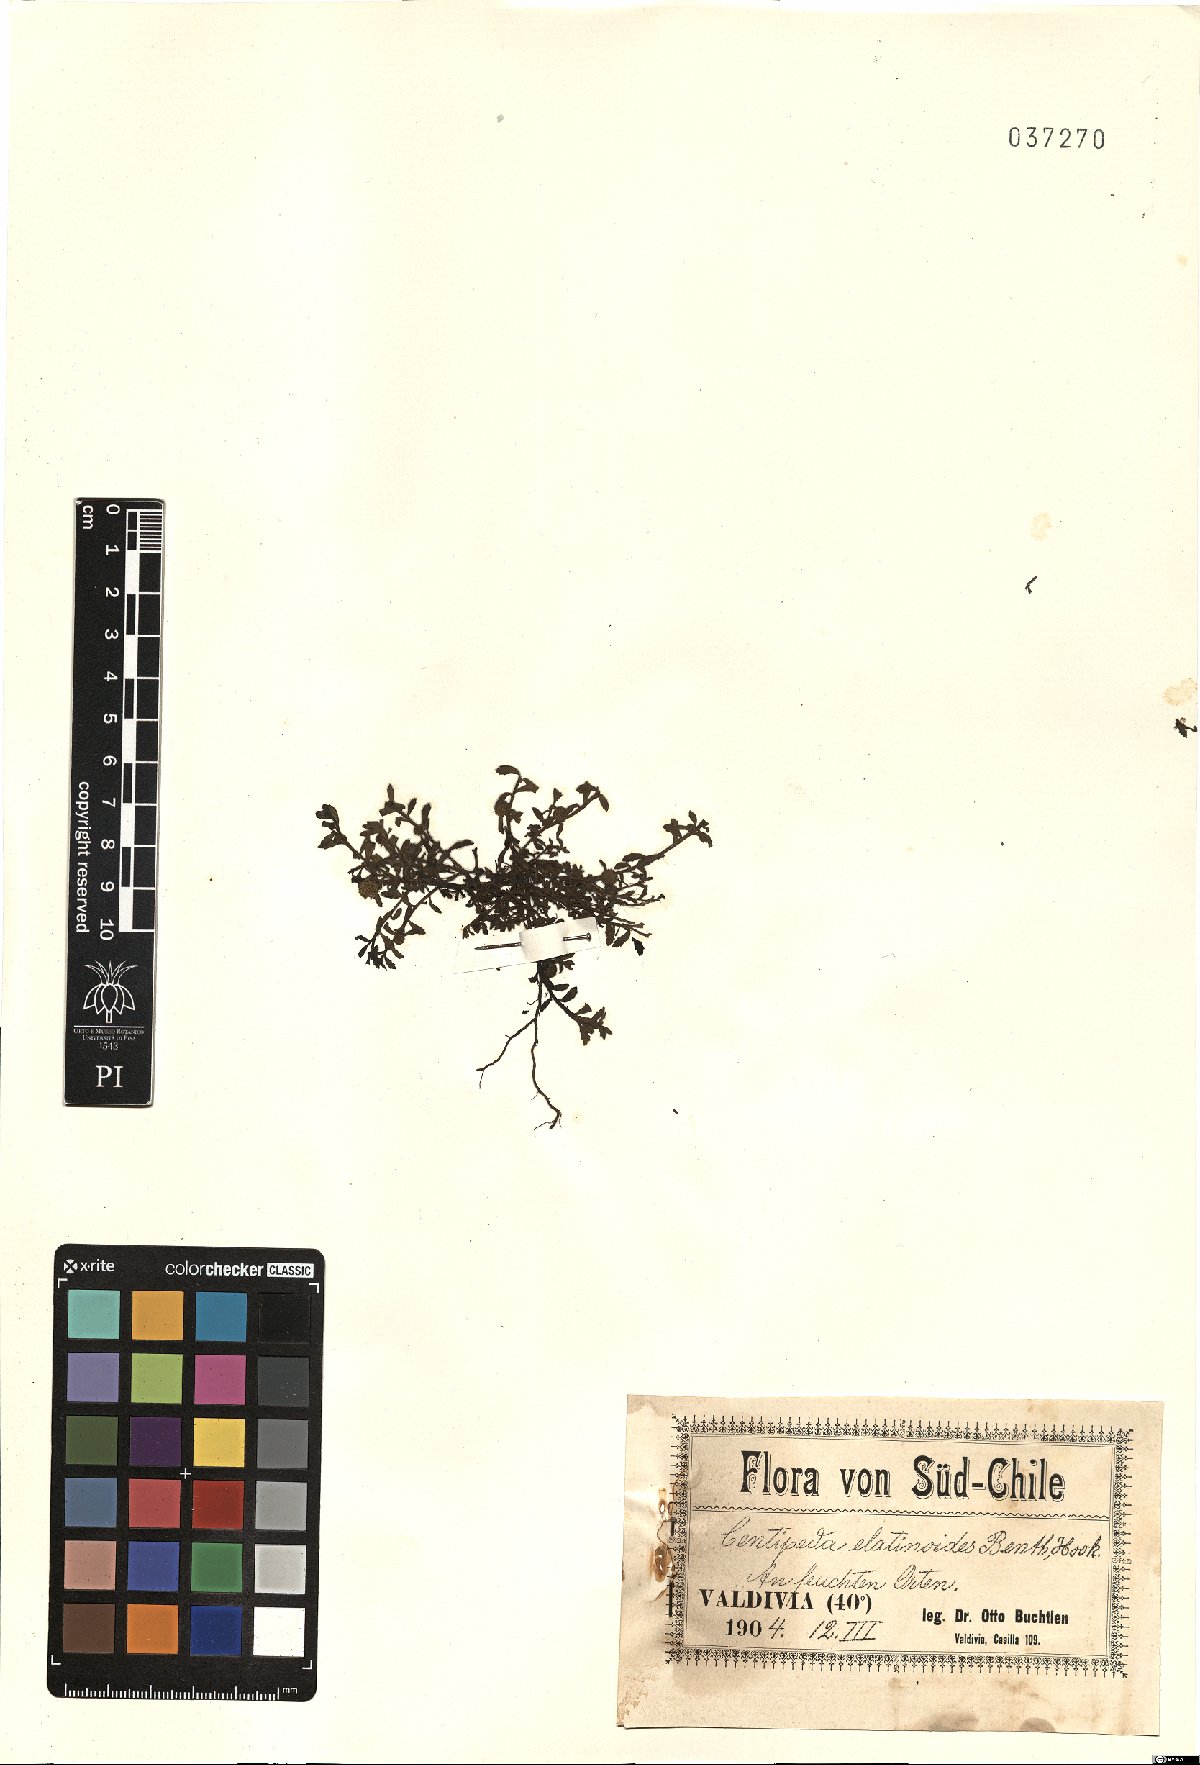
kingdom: Plantae
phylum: Tracheophyta
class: Magnoliopsida
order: Asterales
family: Asteraceae
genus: Centipeda
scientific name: Centipeda elatinoides
